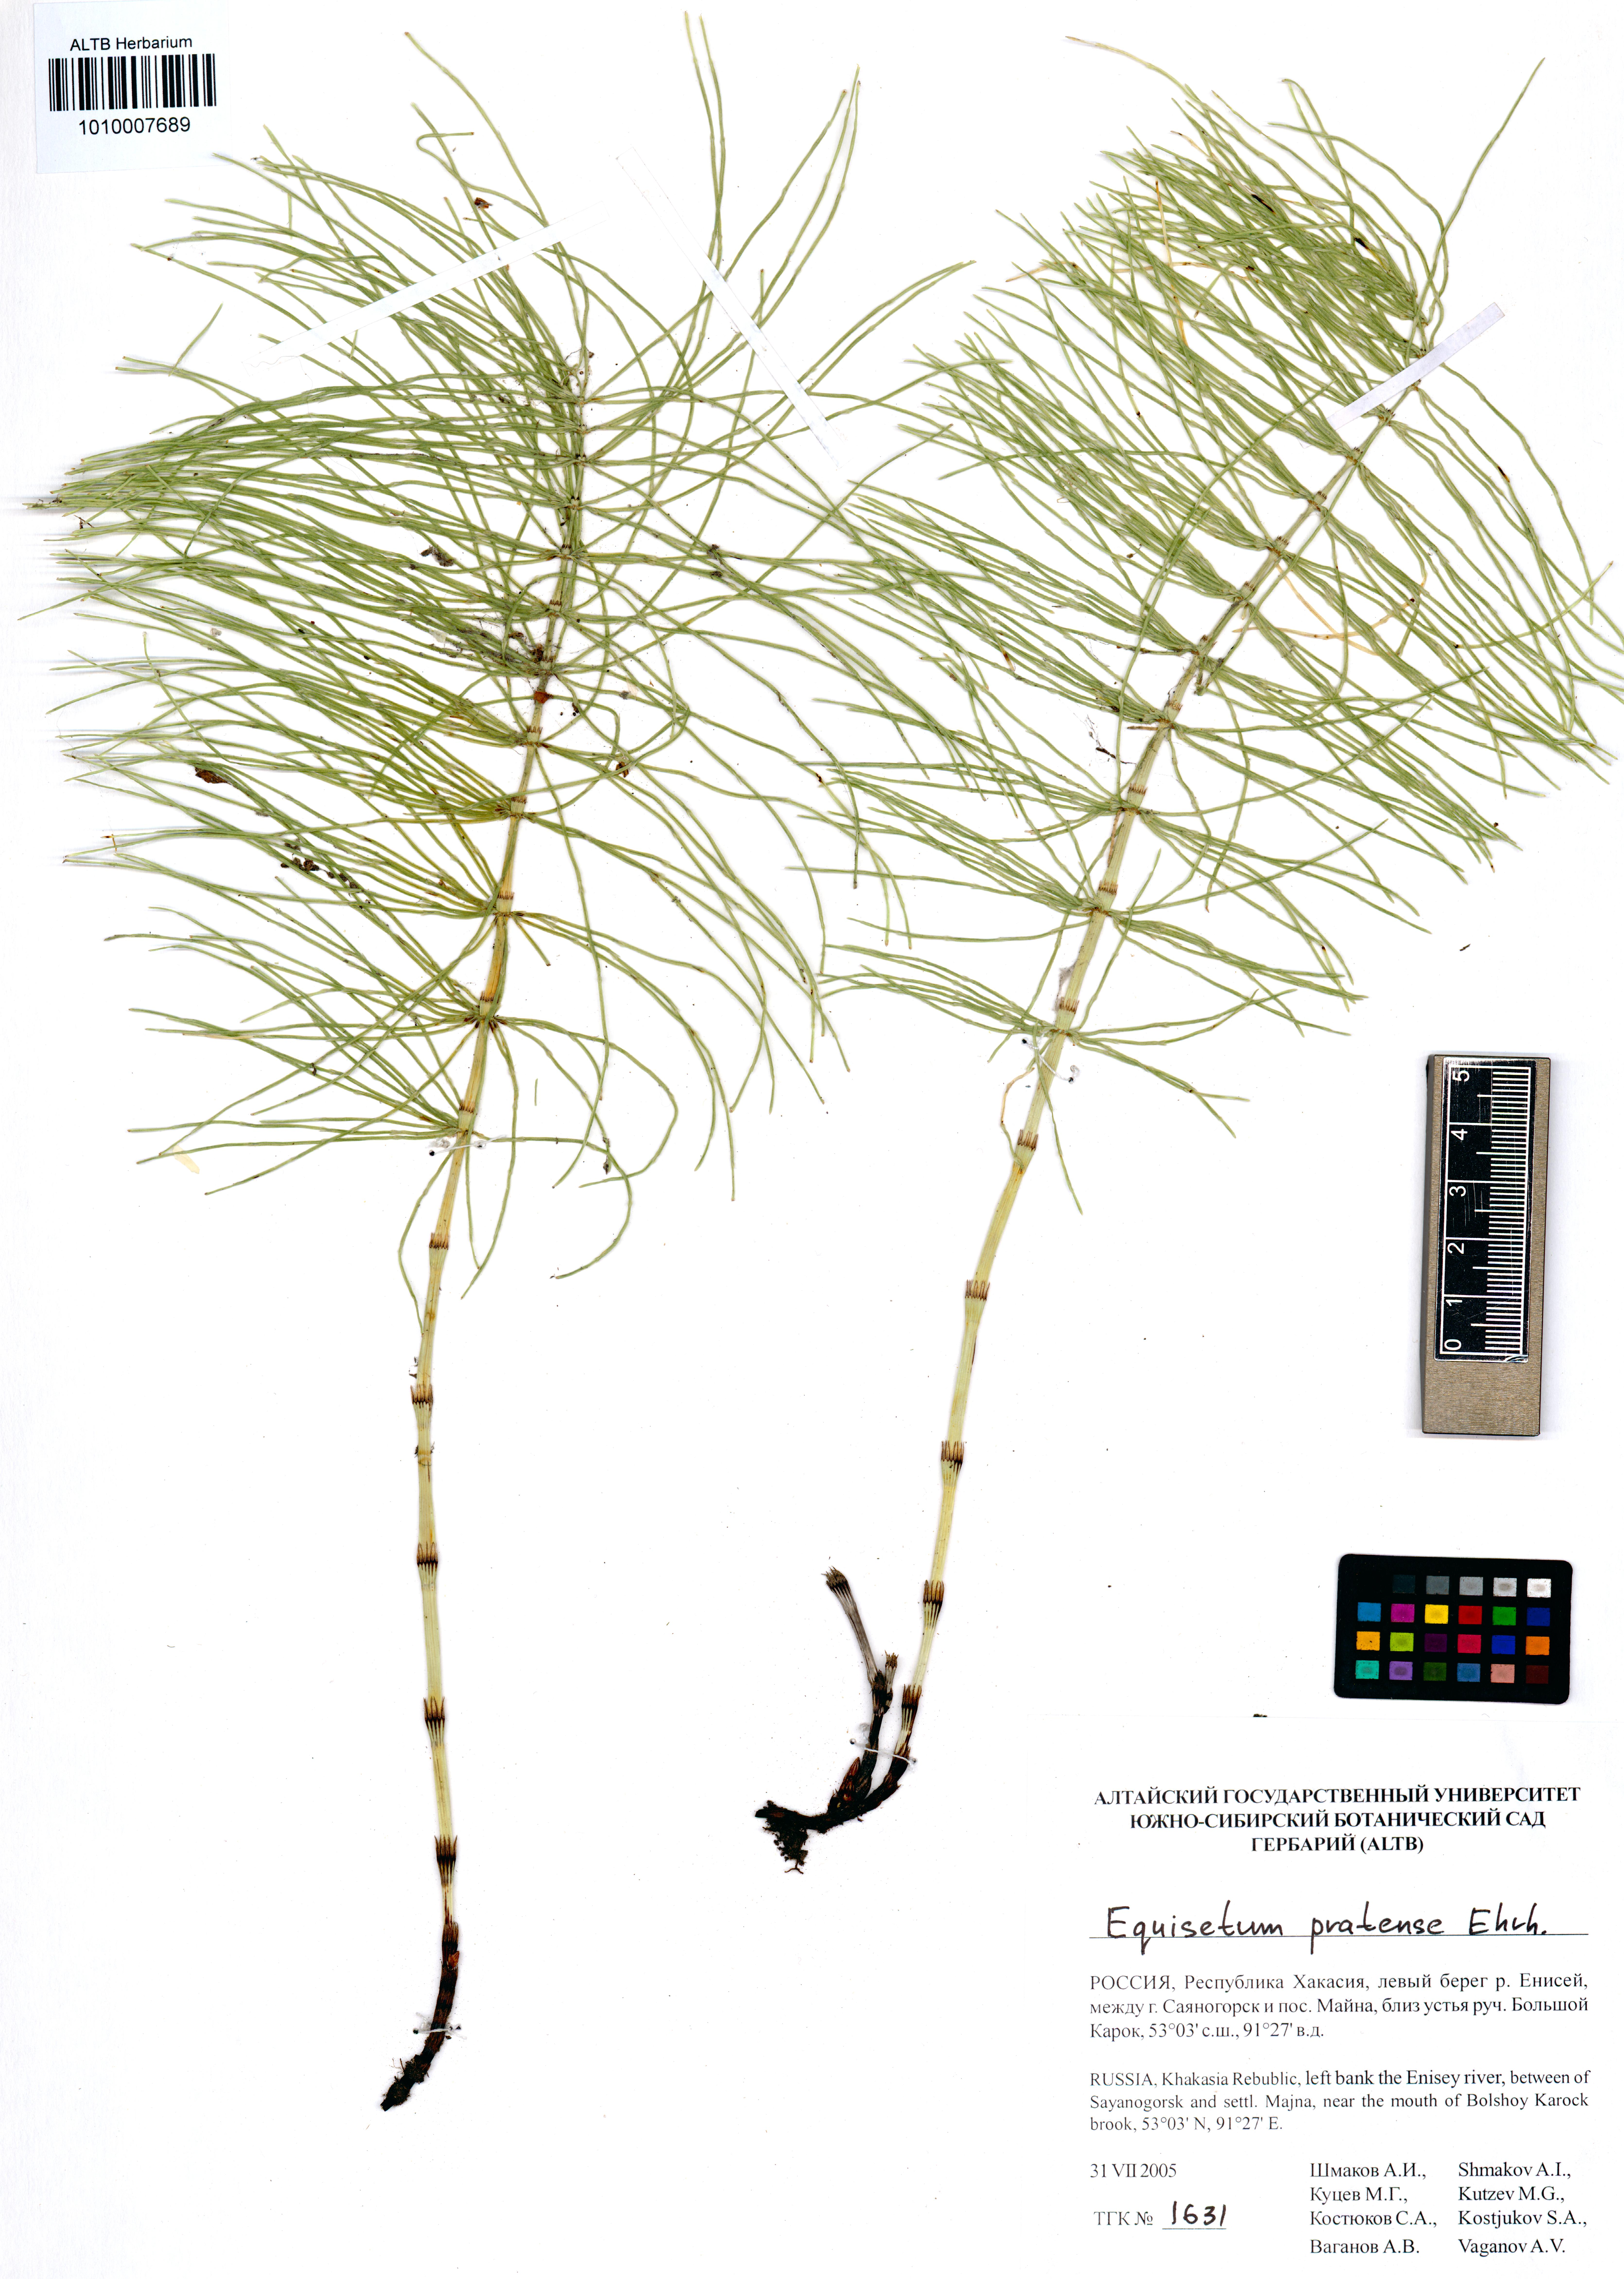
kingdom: Plantae
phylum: Tracheophyta
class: Polypodiopsida
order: Equisetales
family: Equisetaceae
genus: Equisetum
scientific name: Equisetum pratense
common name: Meadow horsetail
